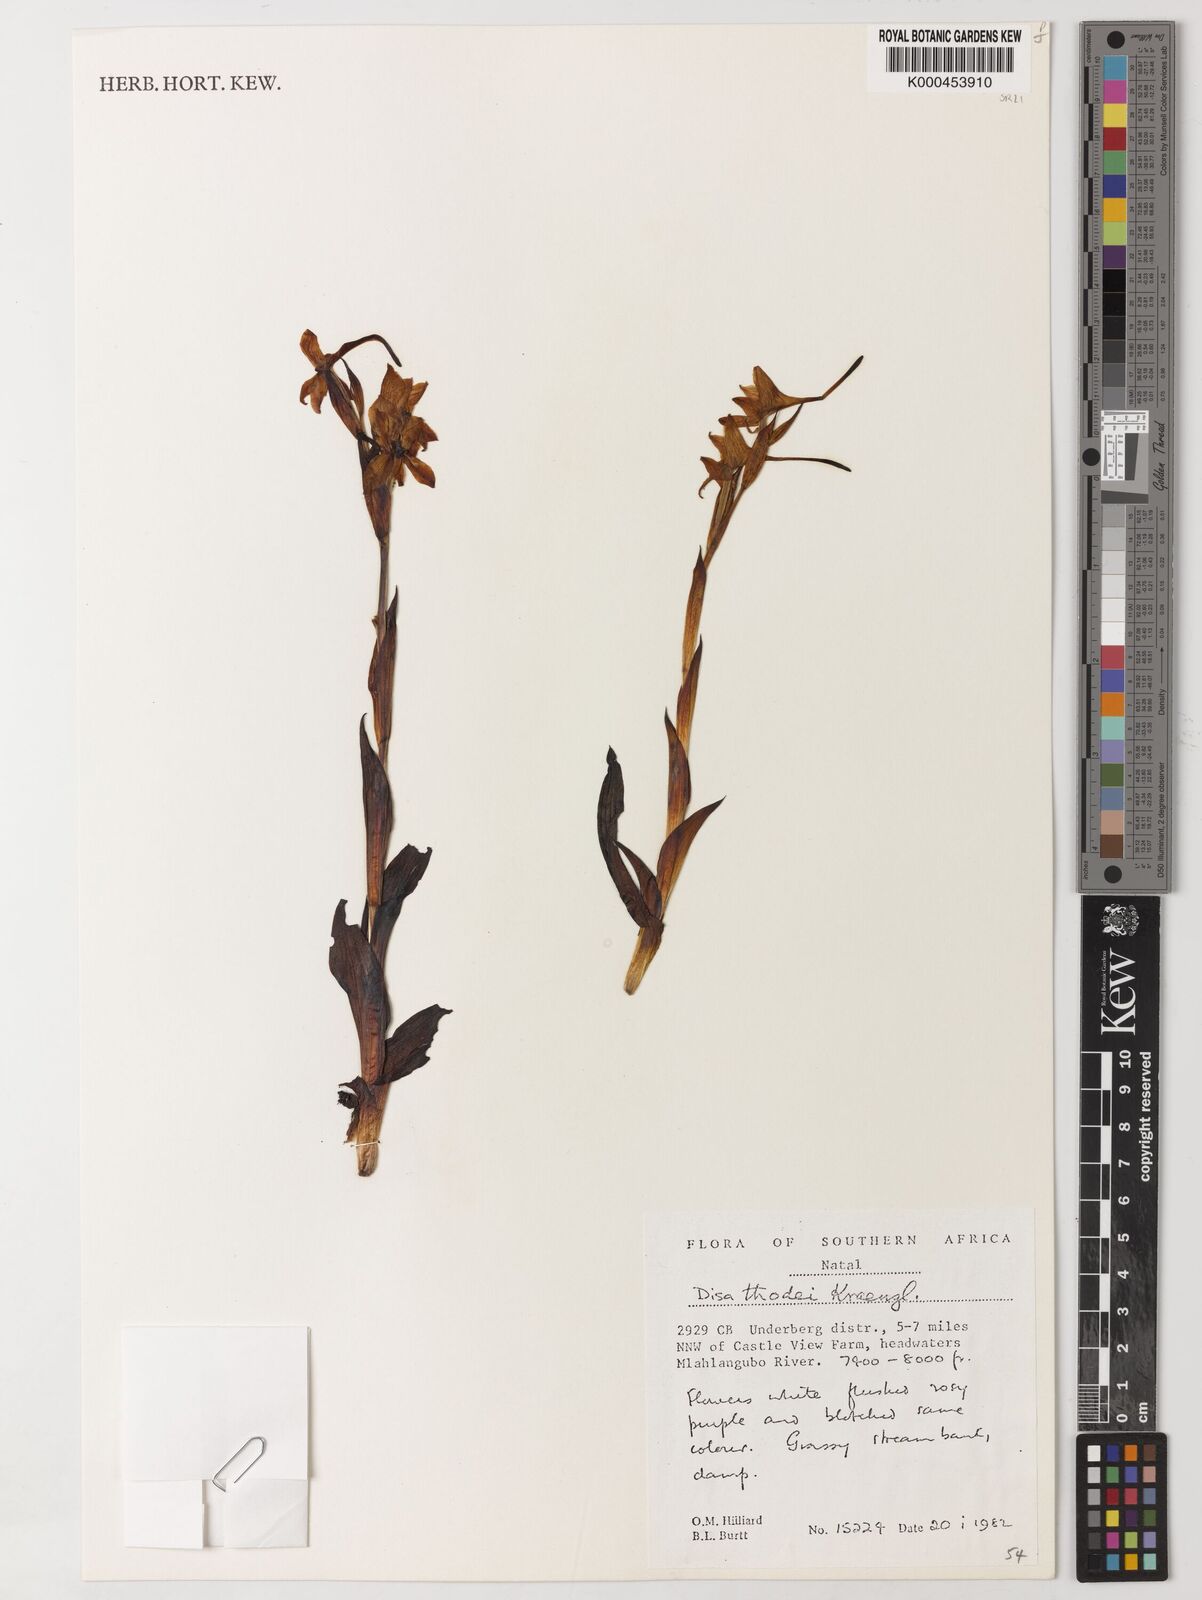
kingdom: Plantae
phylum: Tracheophyta
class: Liliopsida
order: Asparagales
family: Orchidaceae
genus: Disa
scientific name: Disa thodei
